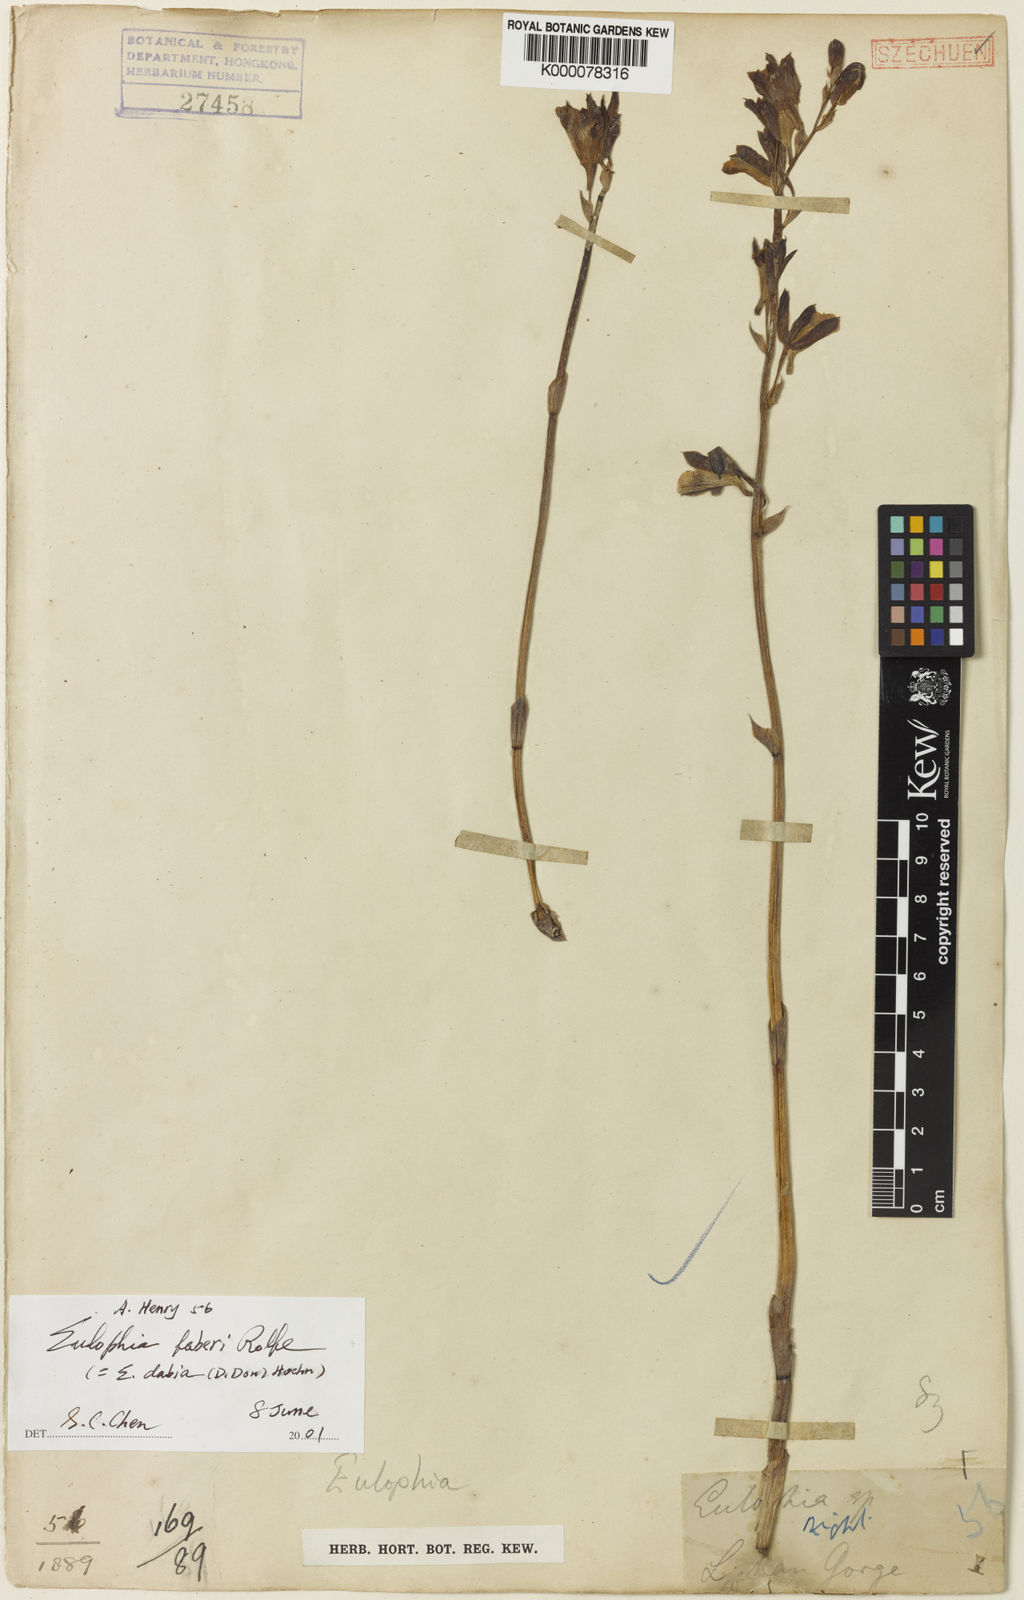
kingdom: Plantae
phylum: Tracheophyta
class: Liliopsida
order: Asparagales
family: Orchidaceae
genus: Eulophia
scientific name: Eulophia dabia
